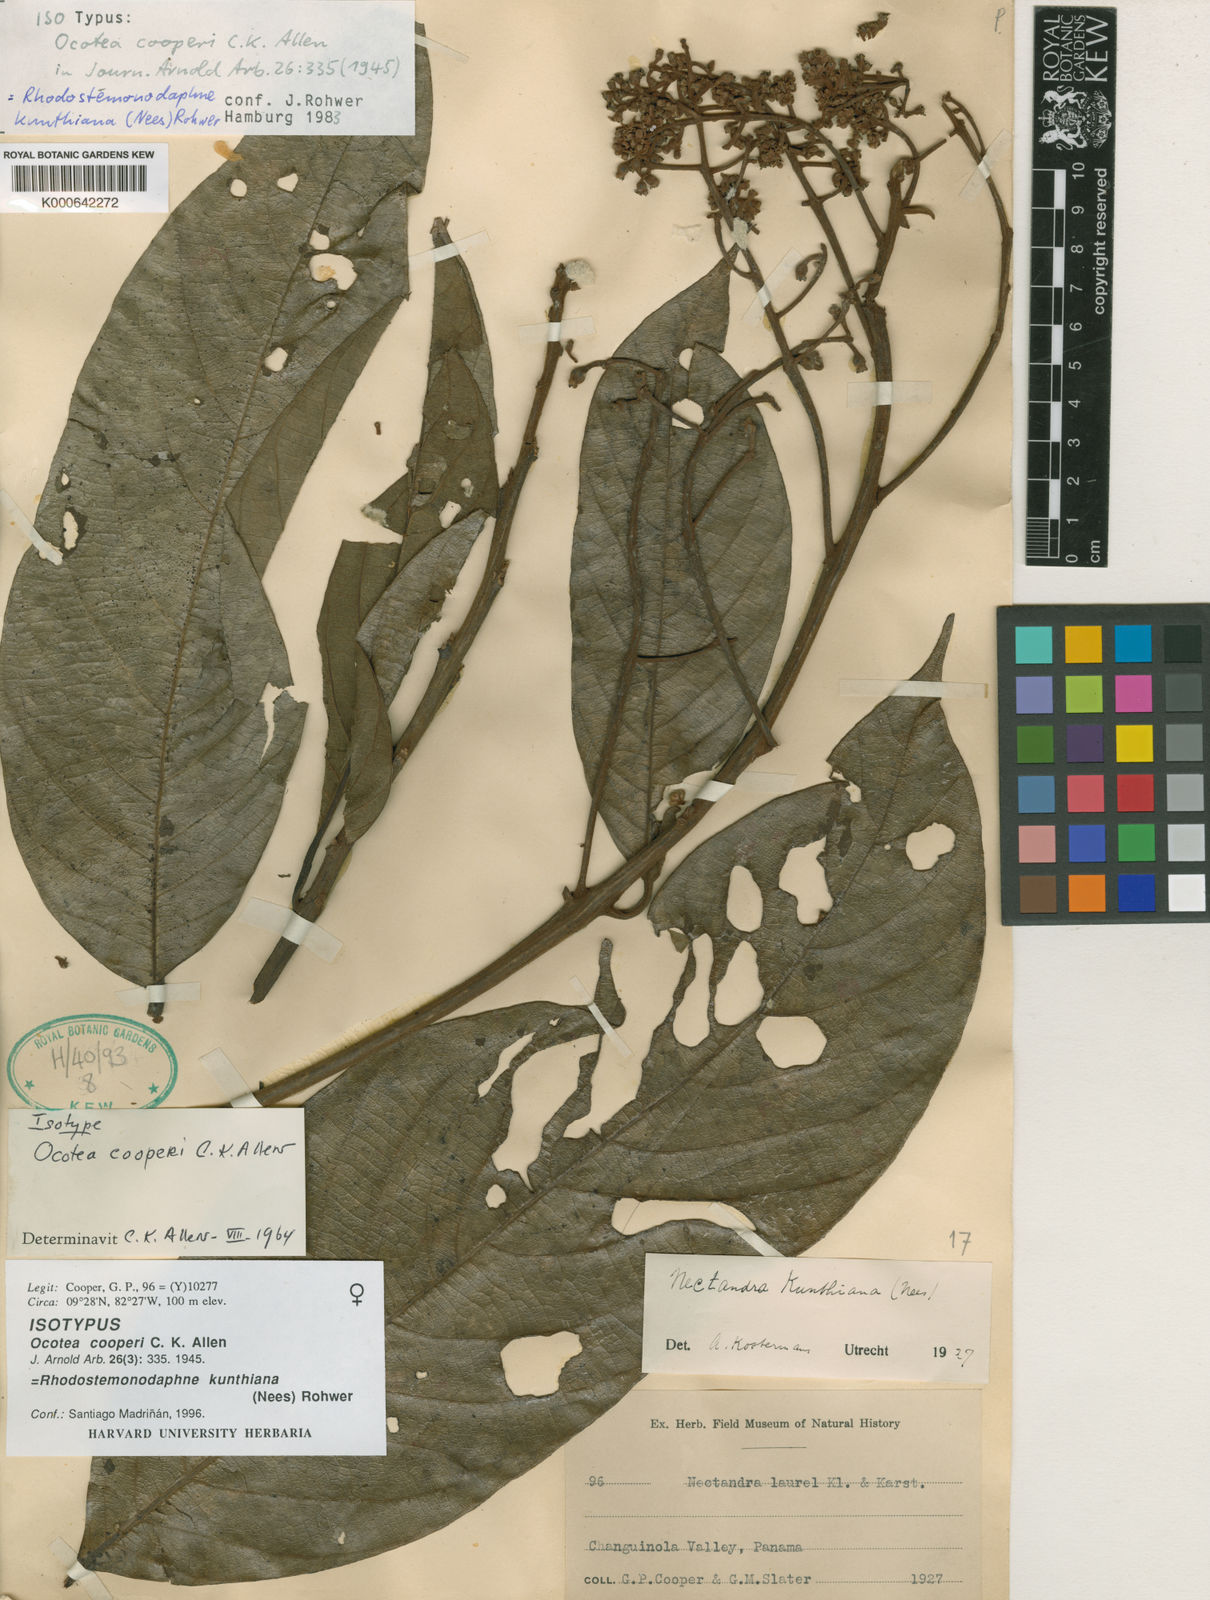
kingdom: Plantae
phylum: Tracheophyta
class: Magnoliopsida
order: Laurales
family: Lauraceae
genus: Rhodostemonodaphne
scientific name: Rhodostemonodaphne kunthiana
